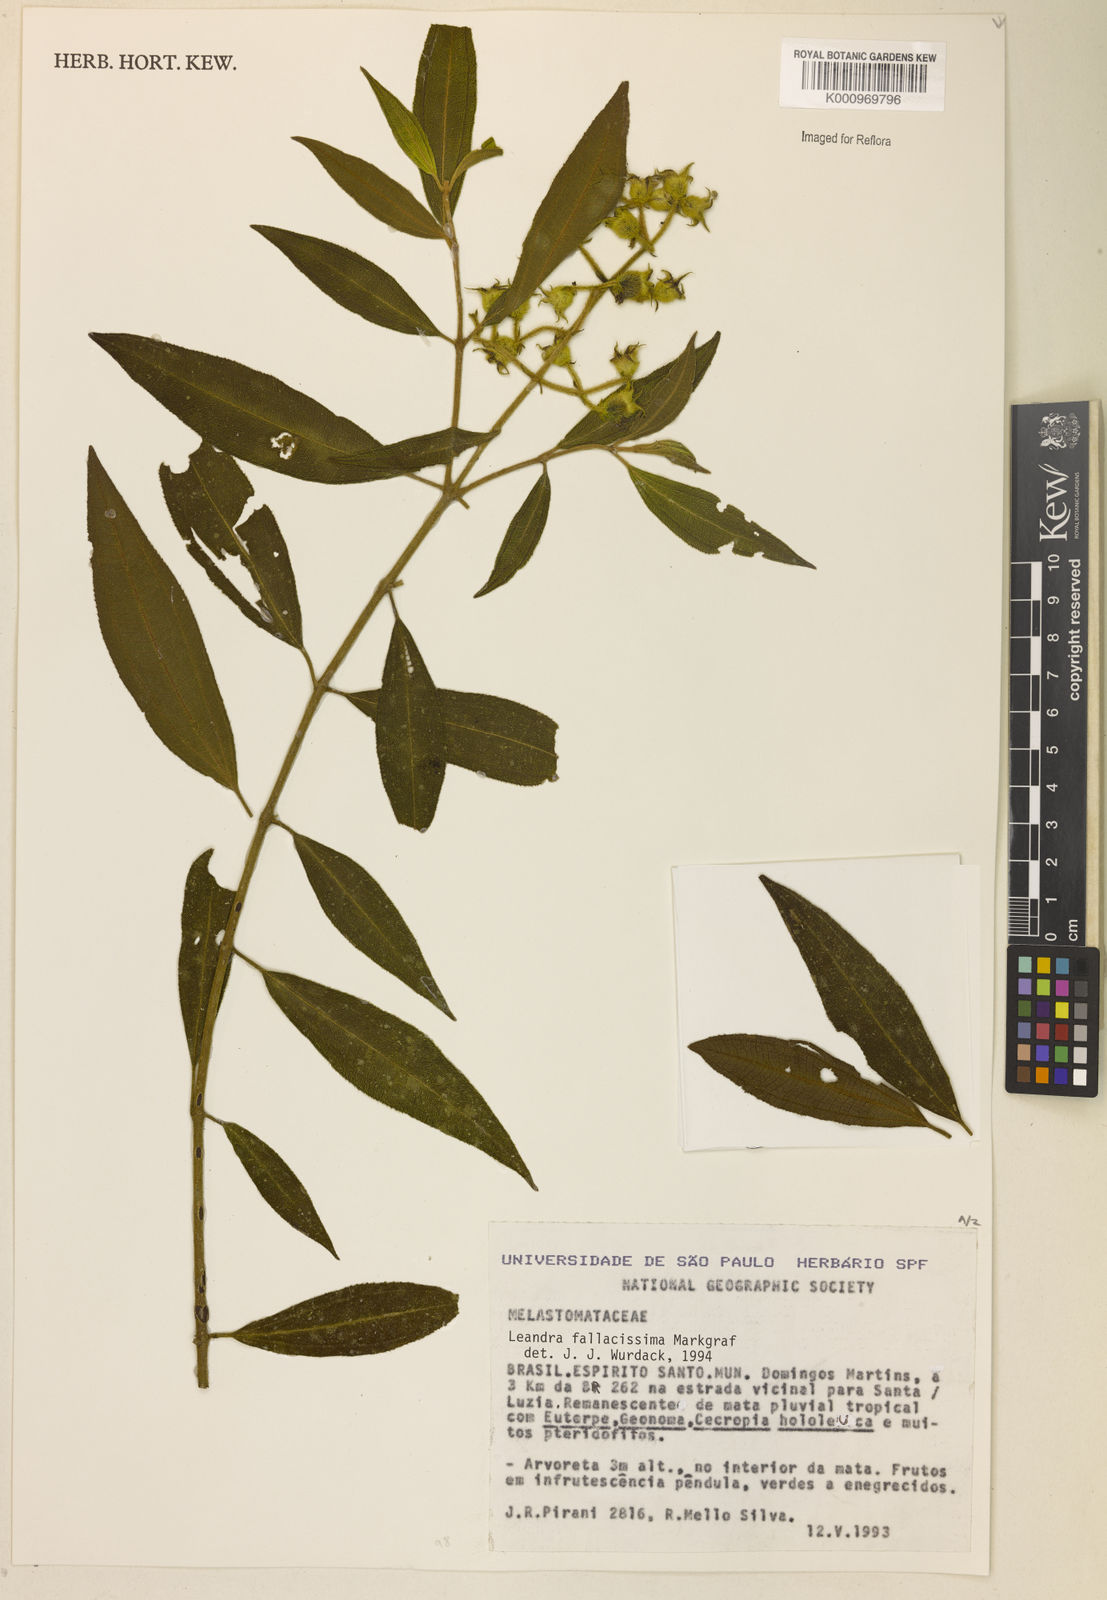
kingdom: Plantae
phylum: Tracheophyta
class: Magnoliopsida
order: Myrtales
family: Melastomataceae
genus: Miconia
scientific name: Miconia fallacissima
